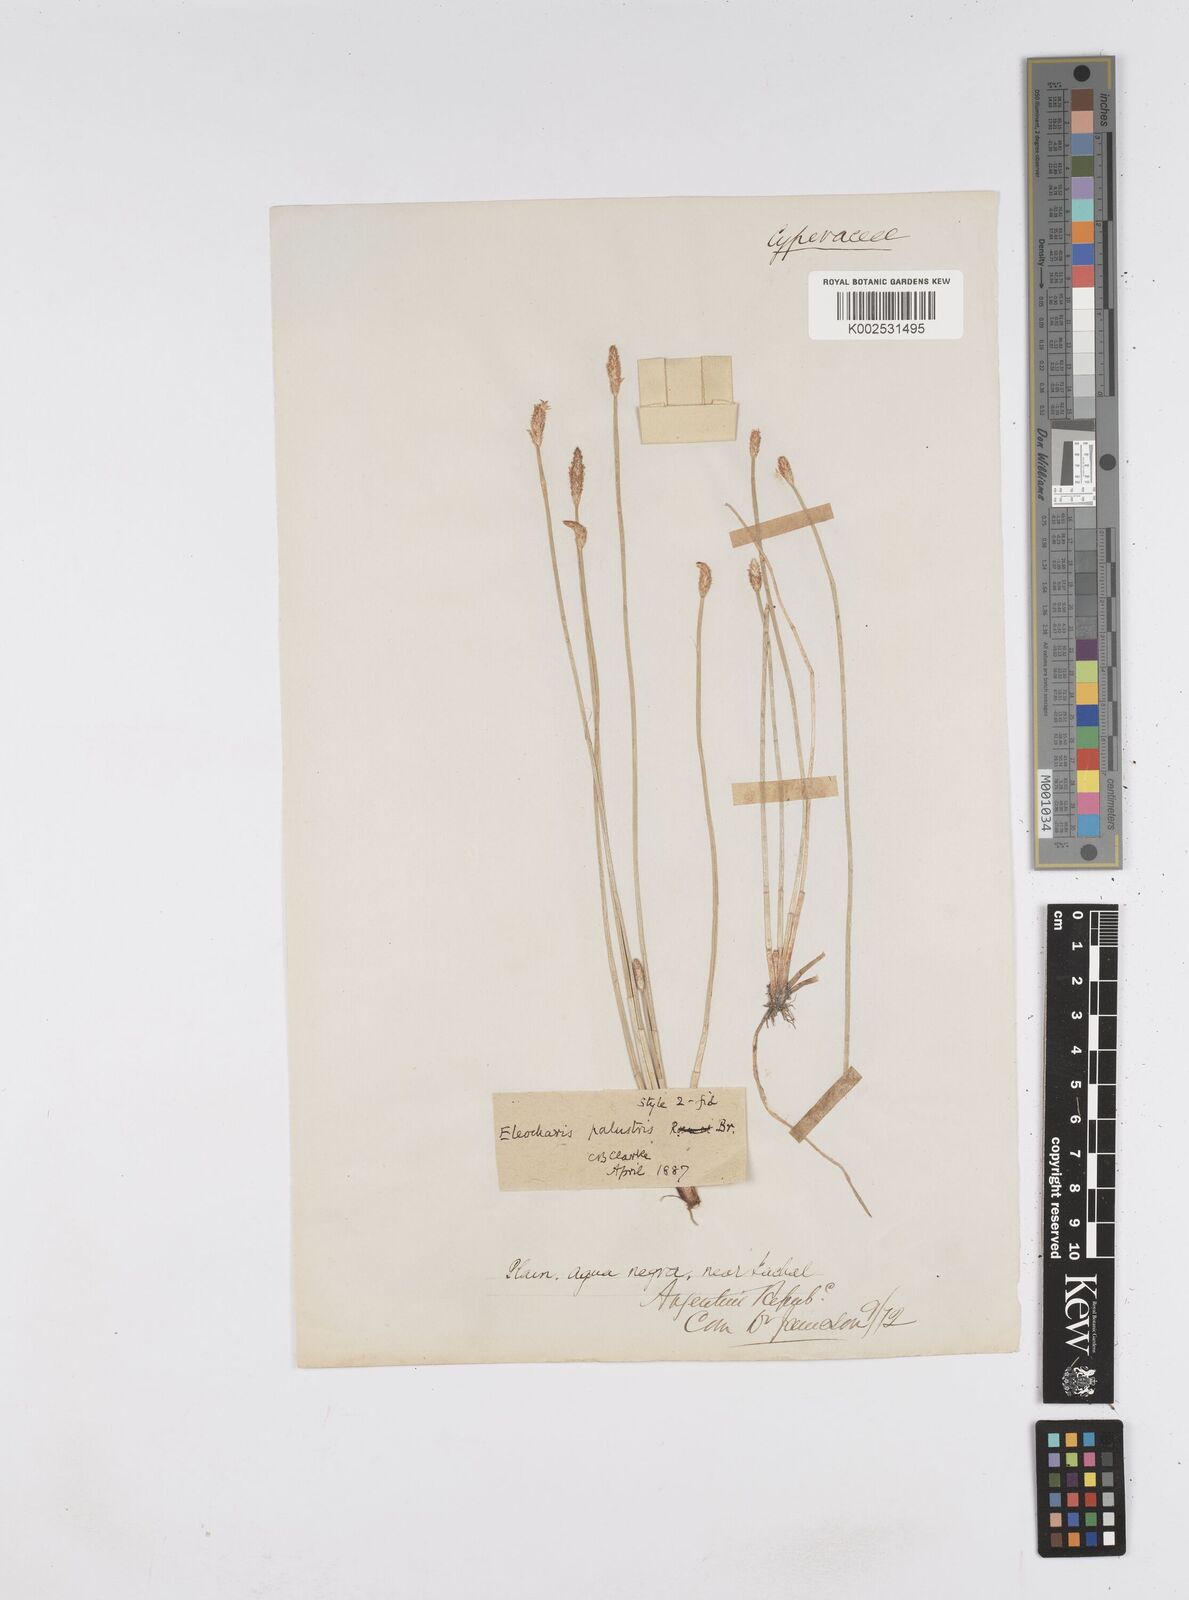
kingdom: Plantae
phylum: Tracheophyta
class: Liliopsida
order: Poales
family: Cyperaceae
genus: Eleocharis
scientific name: Eleocharis palustris
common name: Common spike-rush
